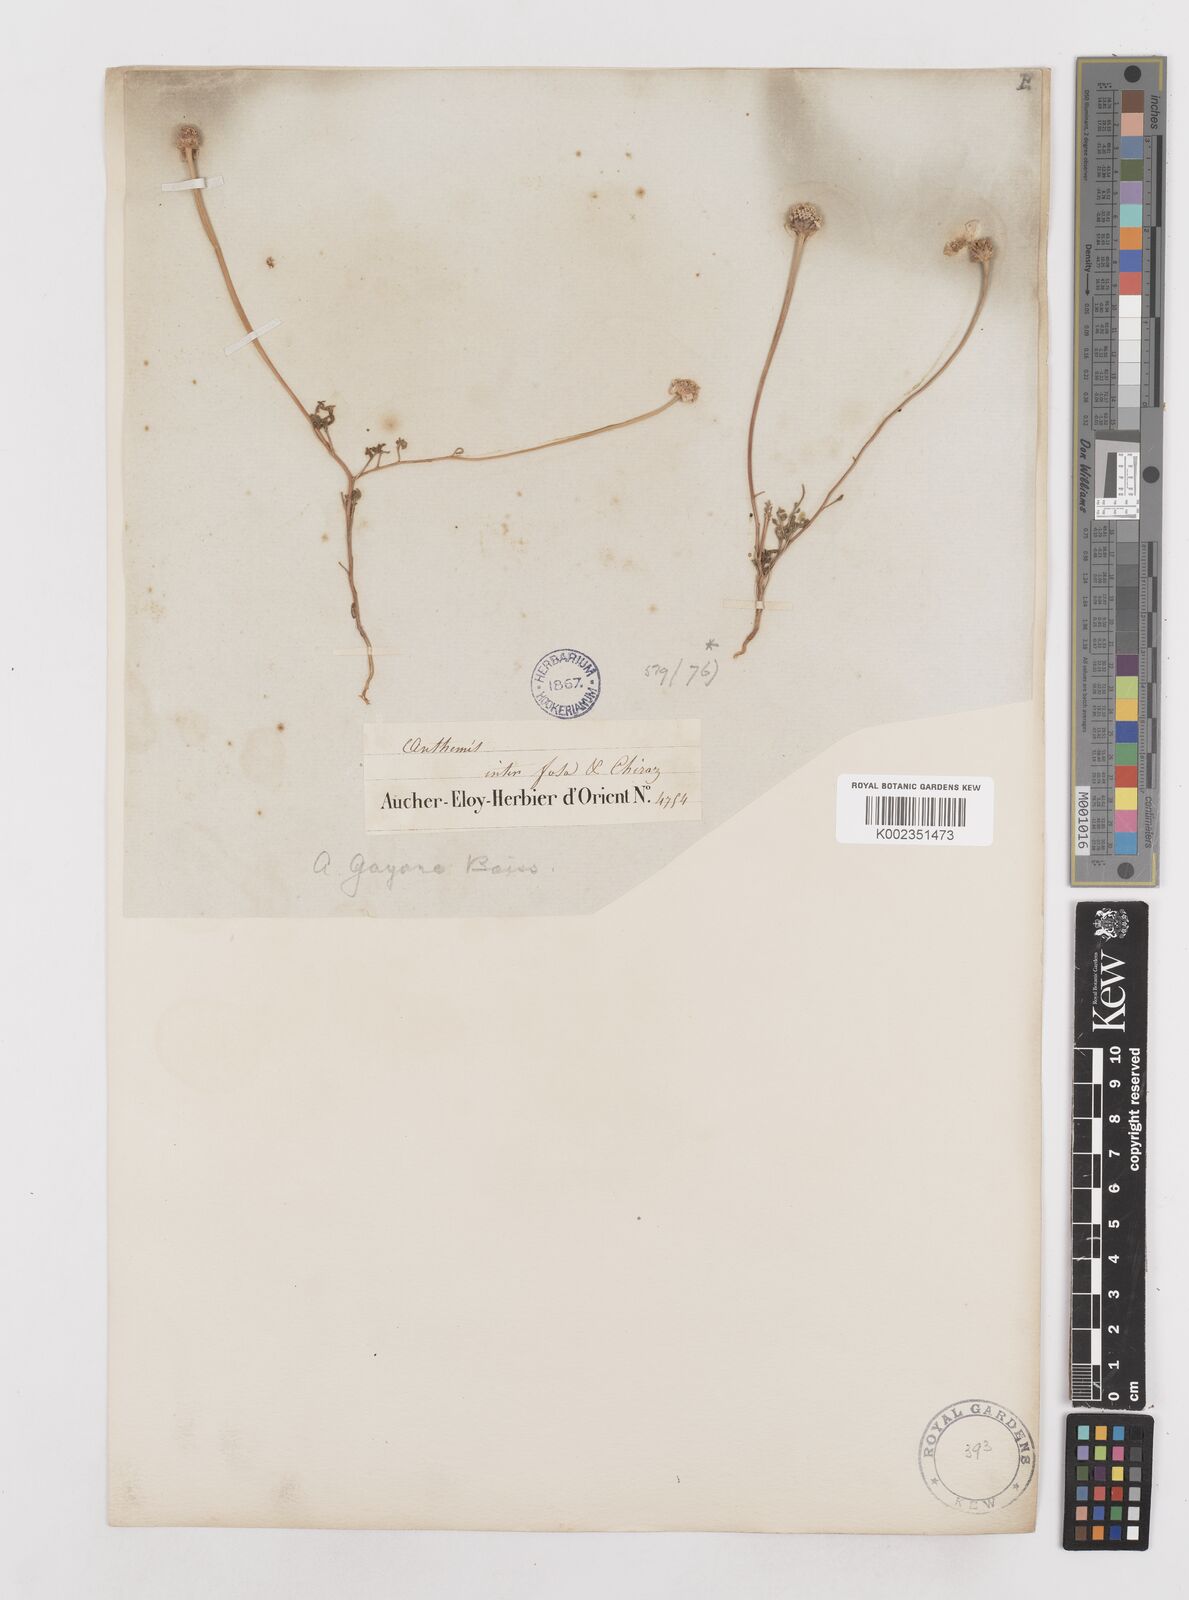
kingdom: Plantae
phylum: Tracheophyta
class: Magnoliopsida
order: Asterales
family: Asteraceae
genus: Anthemis
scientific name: Anthemis gayana
